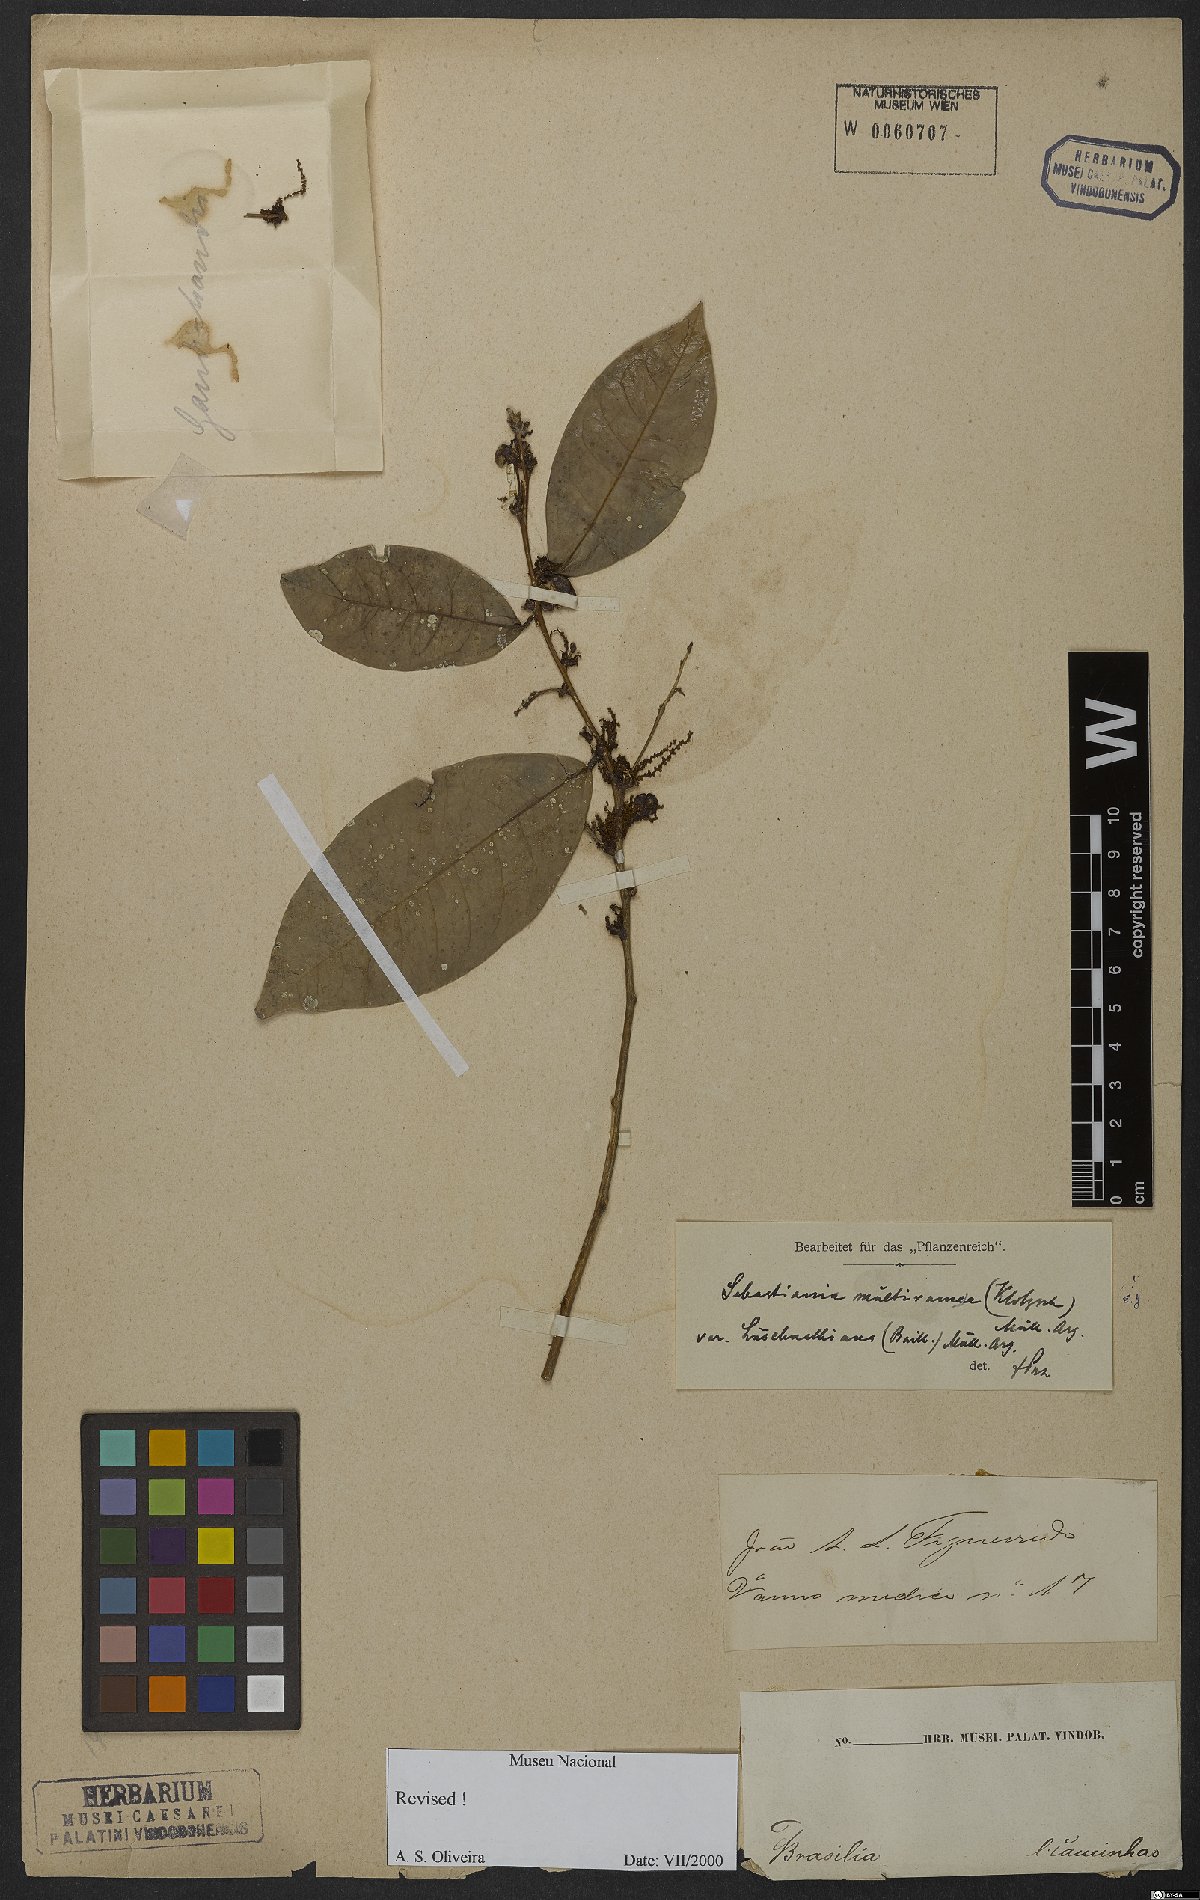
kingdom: Plantae
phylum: Tracheophyta
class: Magnoliopsida
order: Malpighiales
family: Euphorbiaceae
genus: Gymnanthes
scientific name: Gymnanthes glabrata
